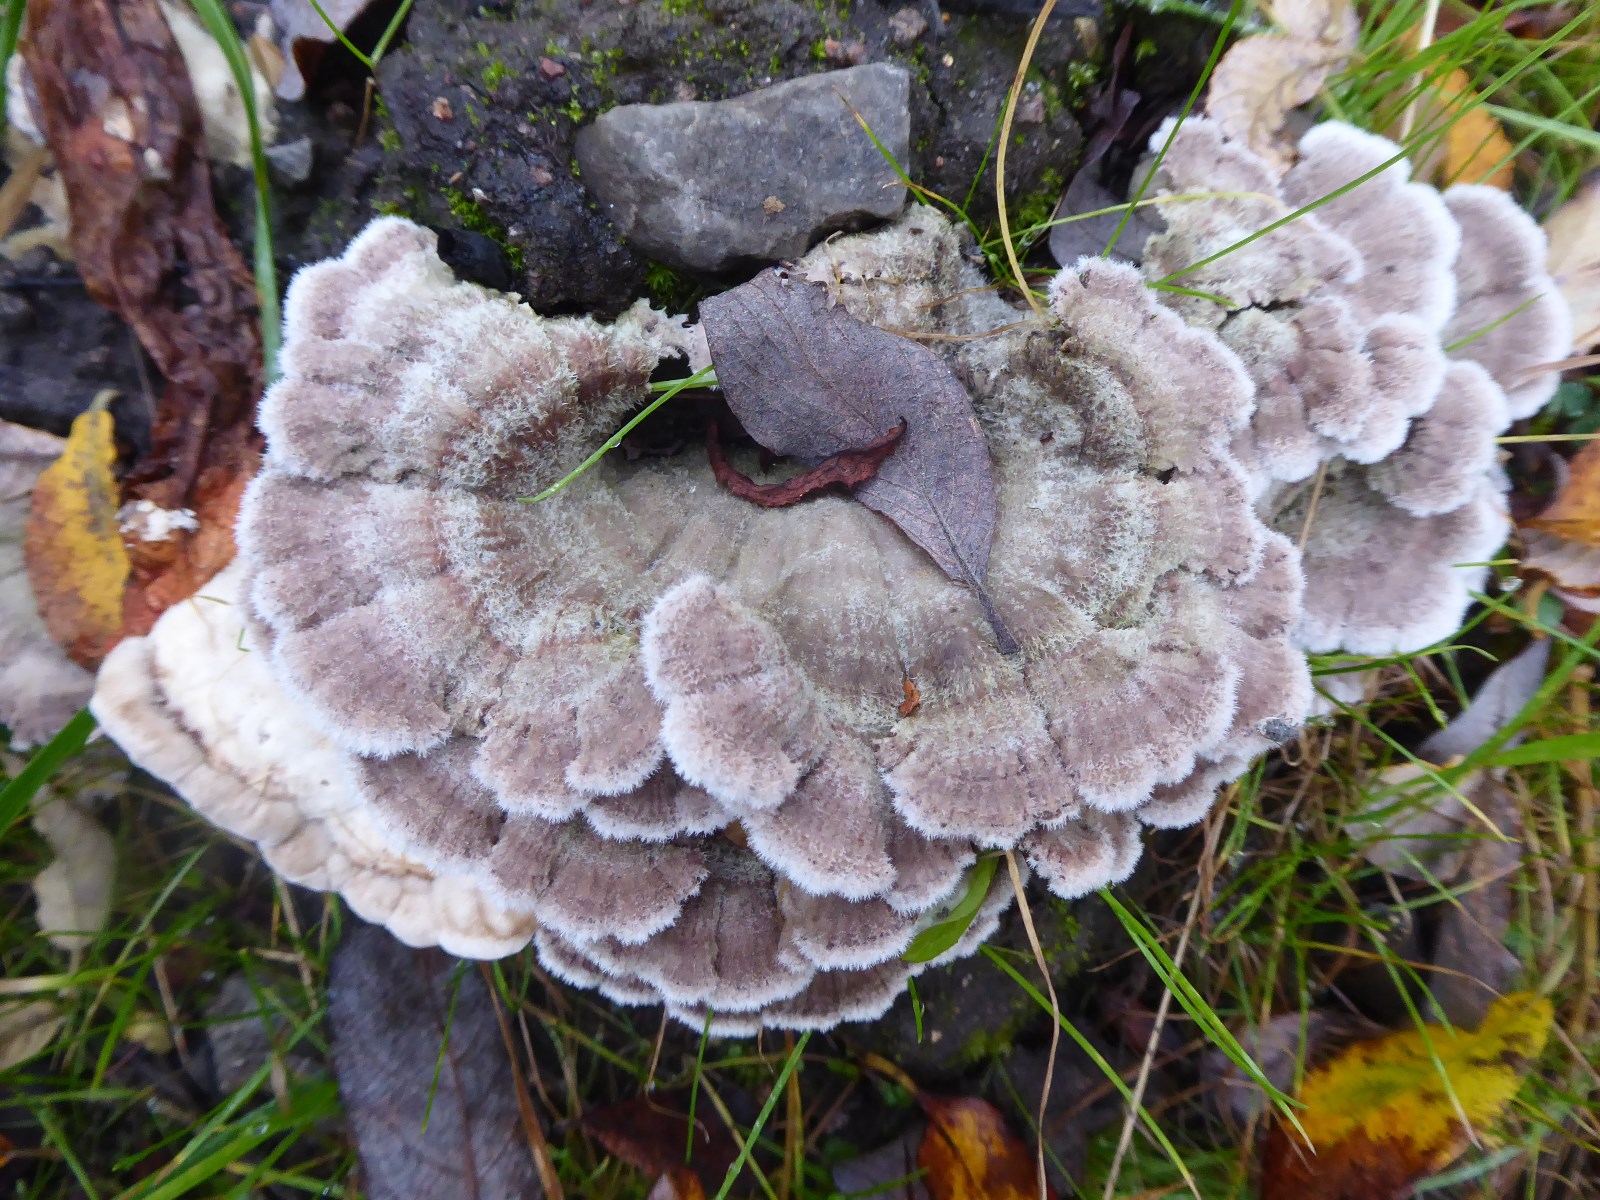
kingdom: Fungi
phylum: Basidiomycota
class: Agaricomycetes
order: Agaricales
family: Schizophyllaceae
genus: Schizophyllum
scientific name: Schizophyllum commune
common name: kløvblad
